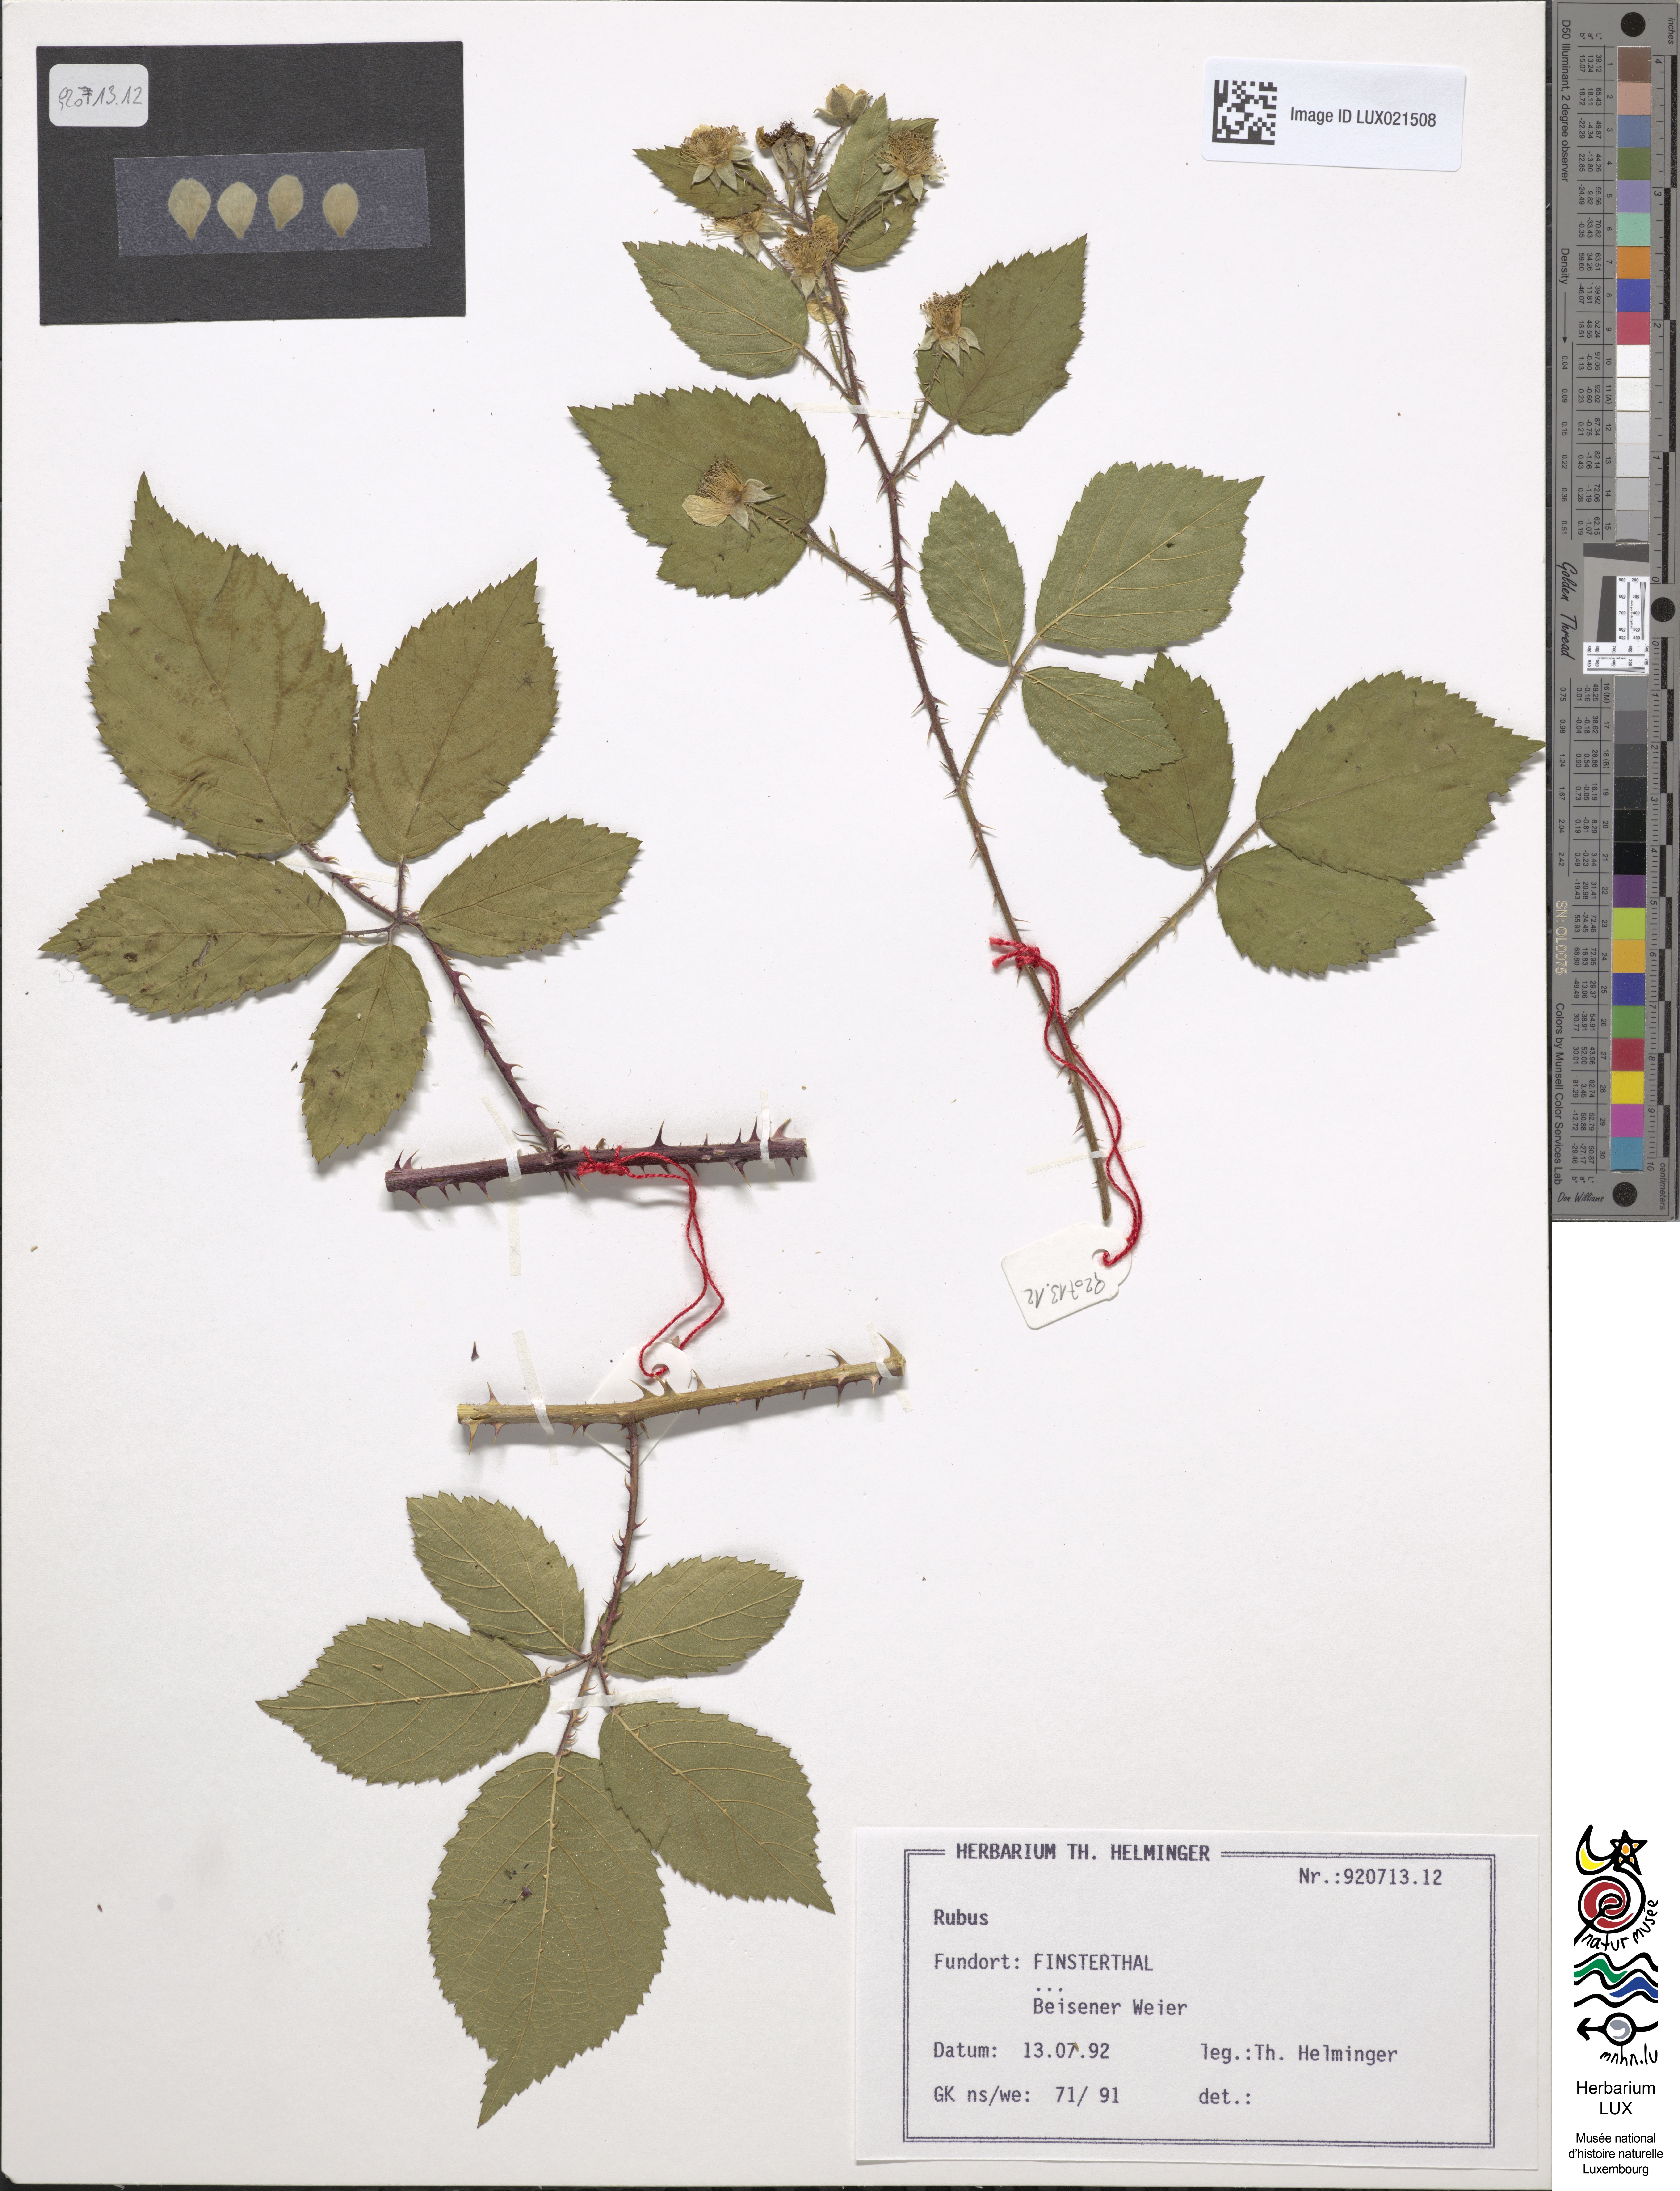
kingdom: Plantae
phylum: Tracheophyta
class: Magnoliopsida
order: Rosales
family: Rosaceae
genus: Rubus
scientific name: Rubus
